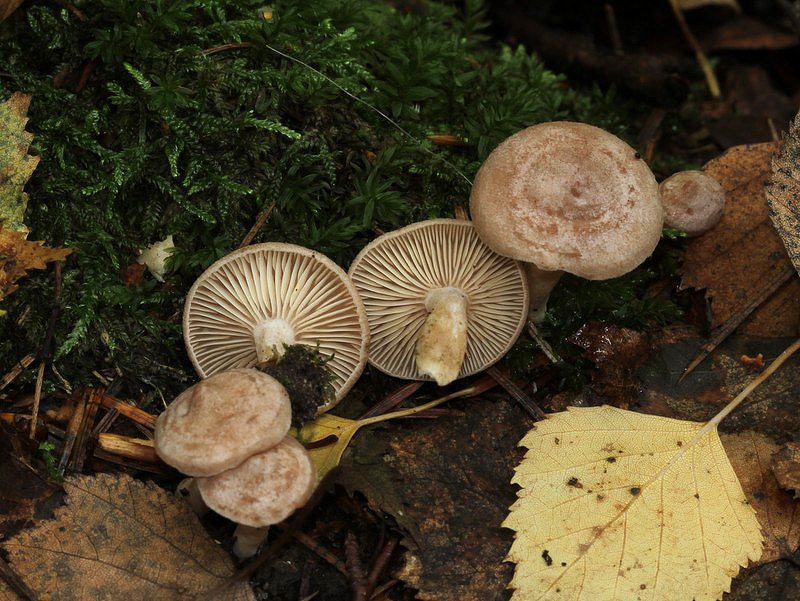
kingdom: Fungi
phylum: Basidiomycota
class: Agaricomycetes
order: Russulales
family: Russulaceae
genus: Lactarius
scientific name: Lactarius glyciosmus
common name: kokos-mælkehat
